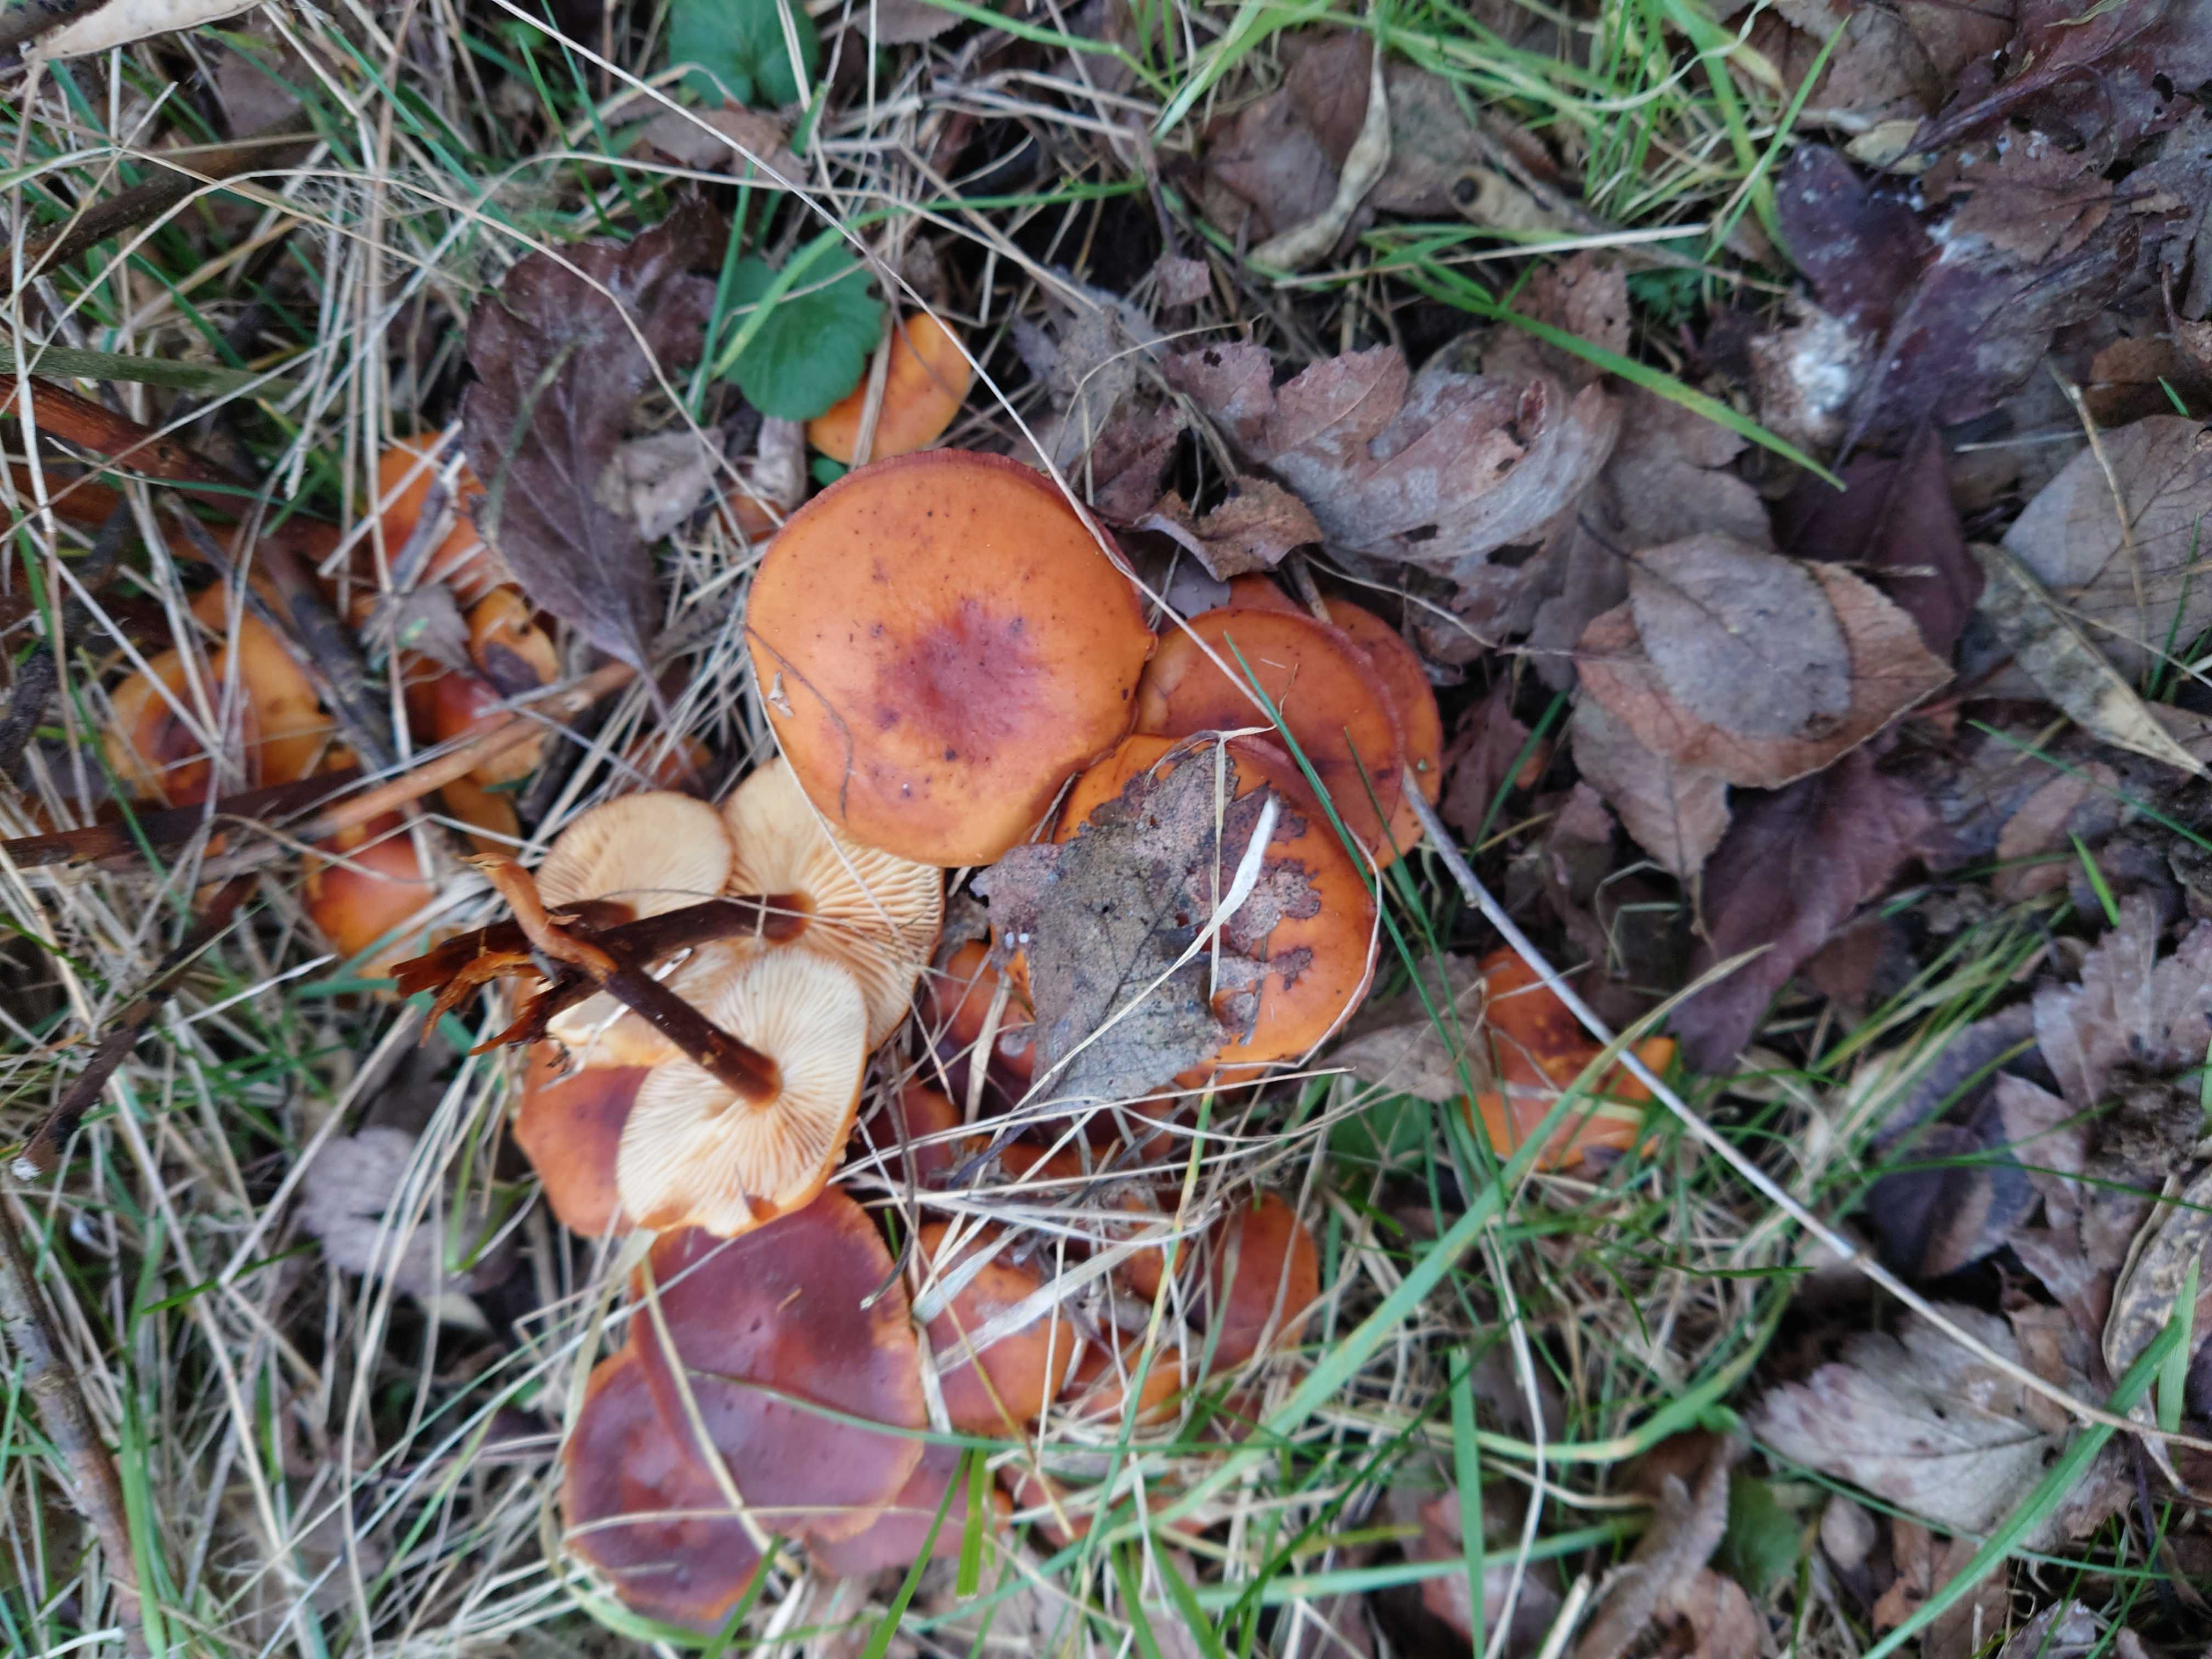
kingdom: Fungi
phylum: Basidiomycota
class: Agaricomycetes
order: Agaricales
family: Physalacriaceae
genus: Flammulina
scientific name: Flammulina velutipes
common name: gul fløjlsfod
